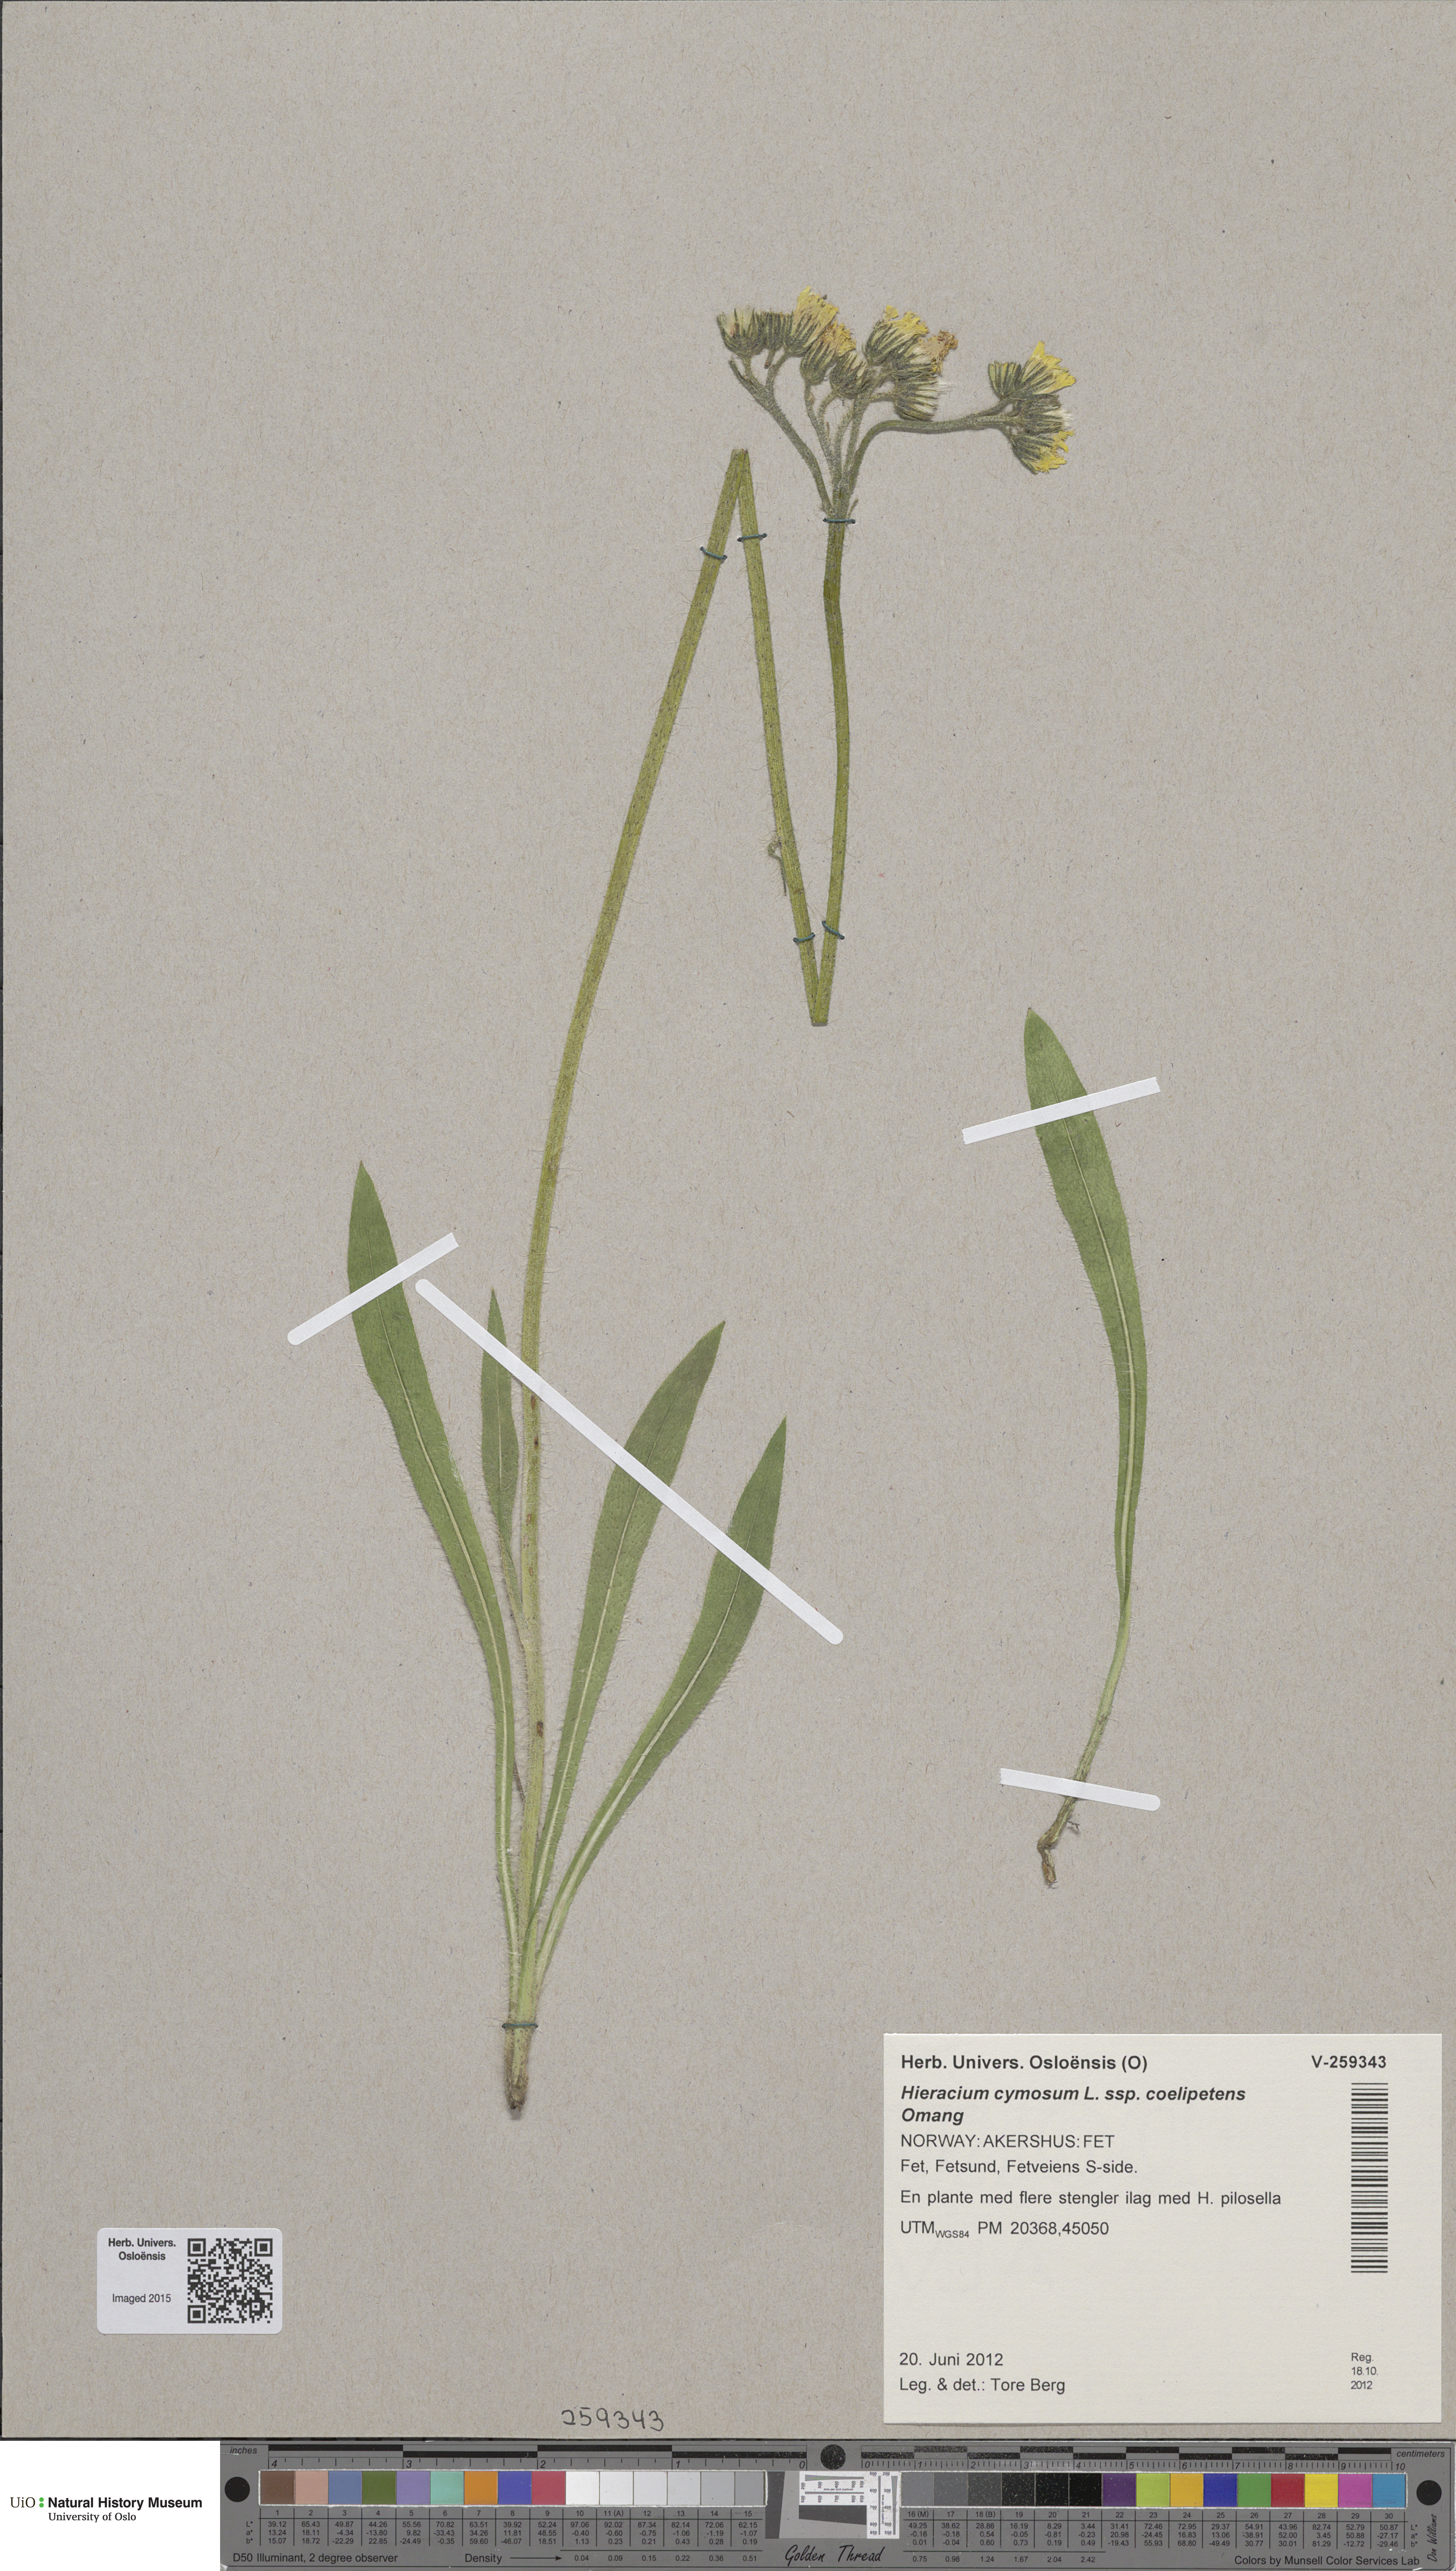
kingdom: Plantae
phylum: Tracheophyta
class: Magnoliopsida
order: Asterales
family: Asteraceae
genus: Pilosella
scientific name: Pilosella cymosa
